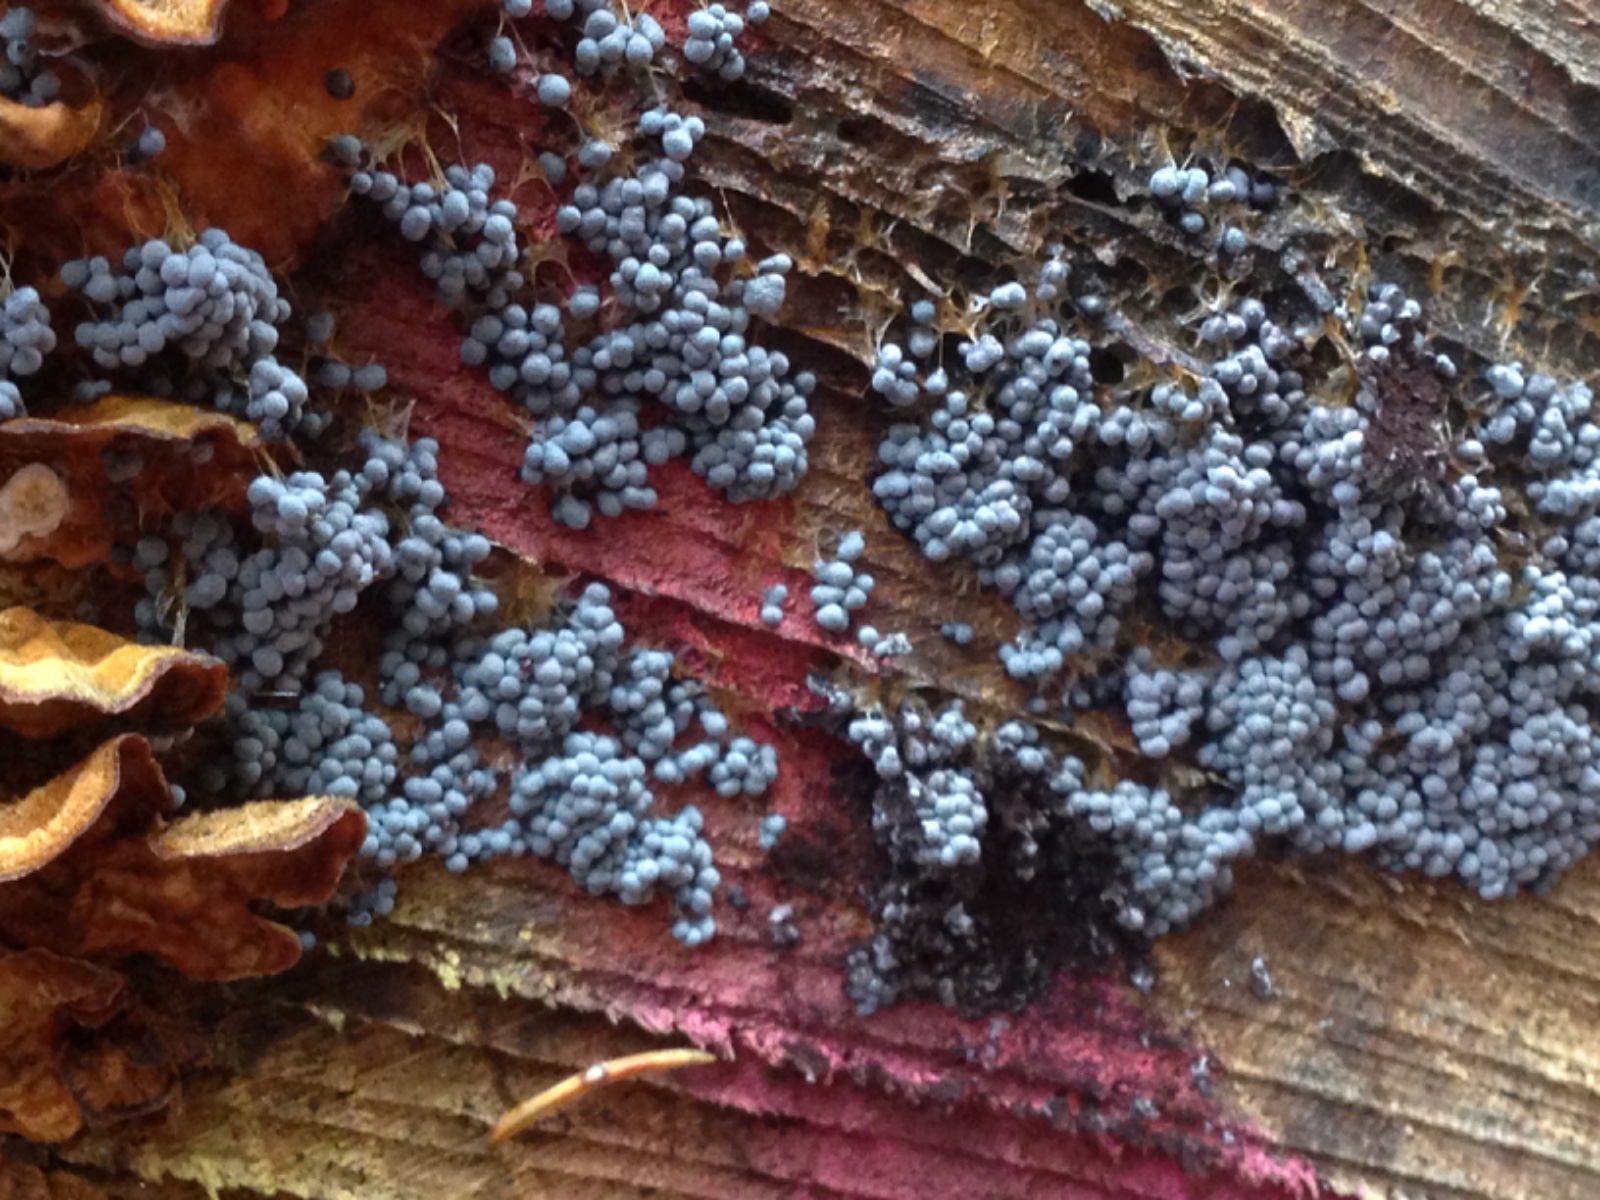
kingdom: Protozoa
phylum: Mycetozoa
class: Myxomycetes
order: Physarales
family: Physaraceae
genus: Badhamia
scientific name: Badhamia utricularis
